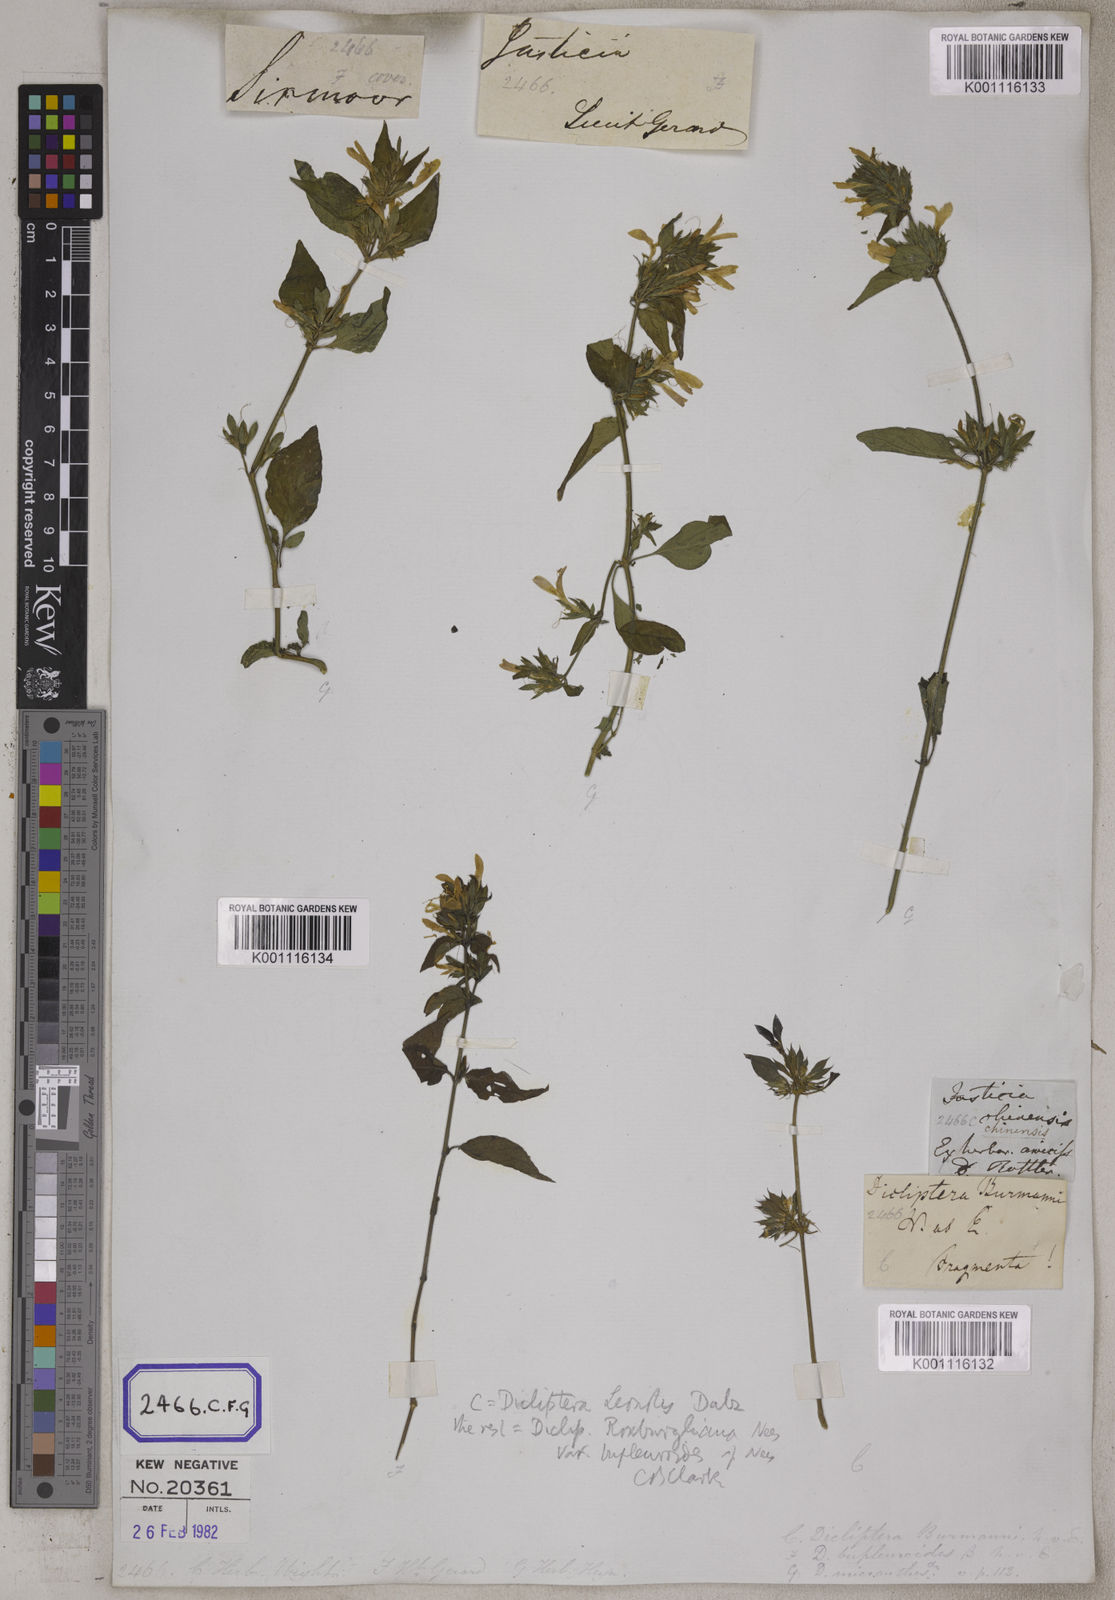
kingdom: Plantae
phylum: Tracheophyta
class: Magnoliopsida
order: Lamiales
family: Acanthaceae
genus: Dicliptera
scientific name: Dicliptera chinensis
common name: Chinese foldwing
